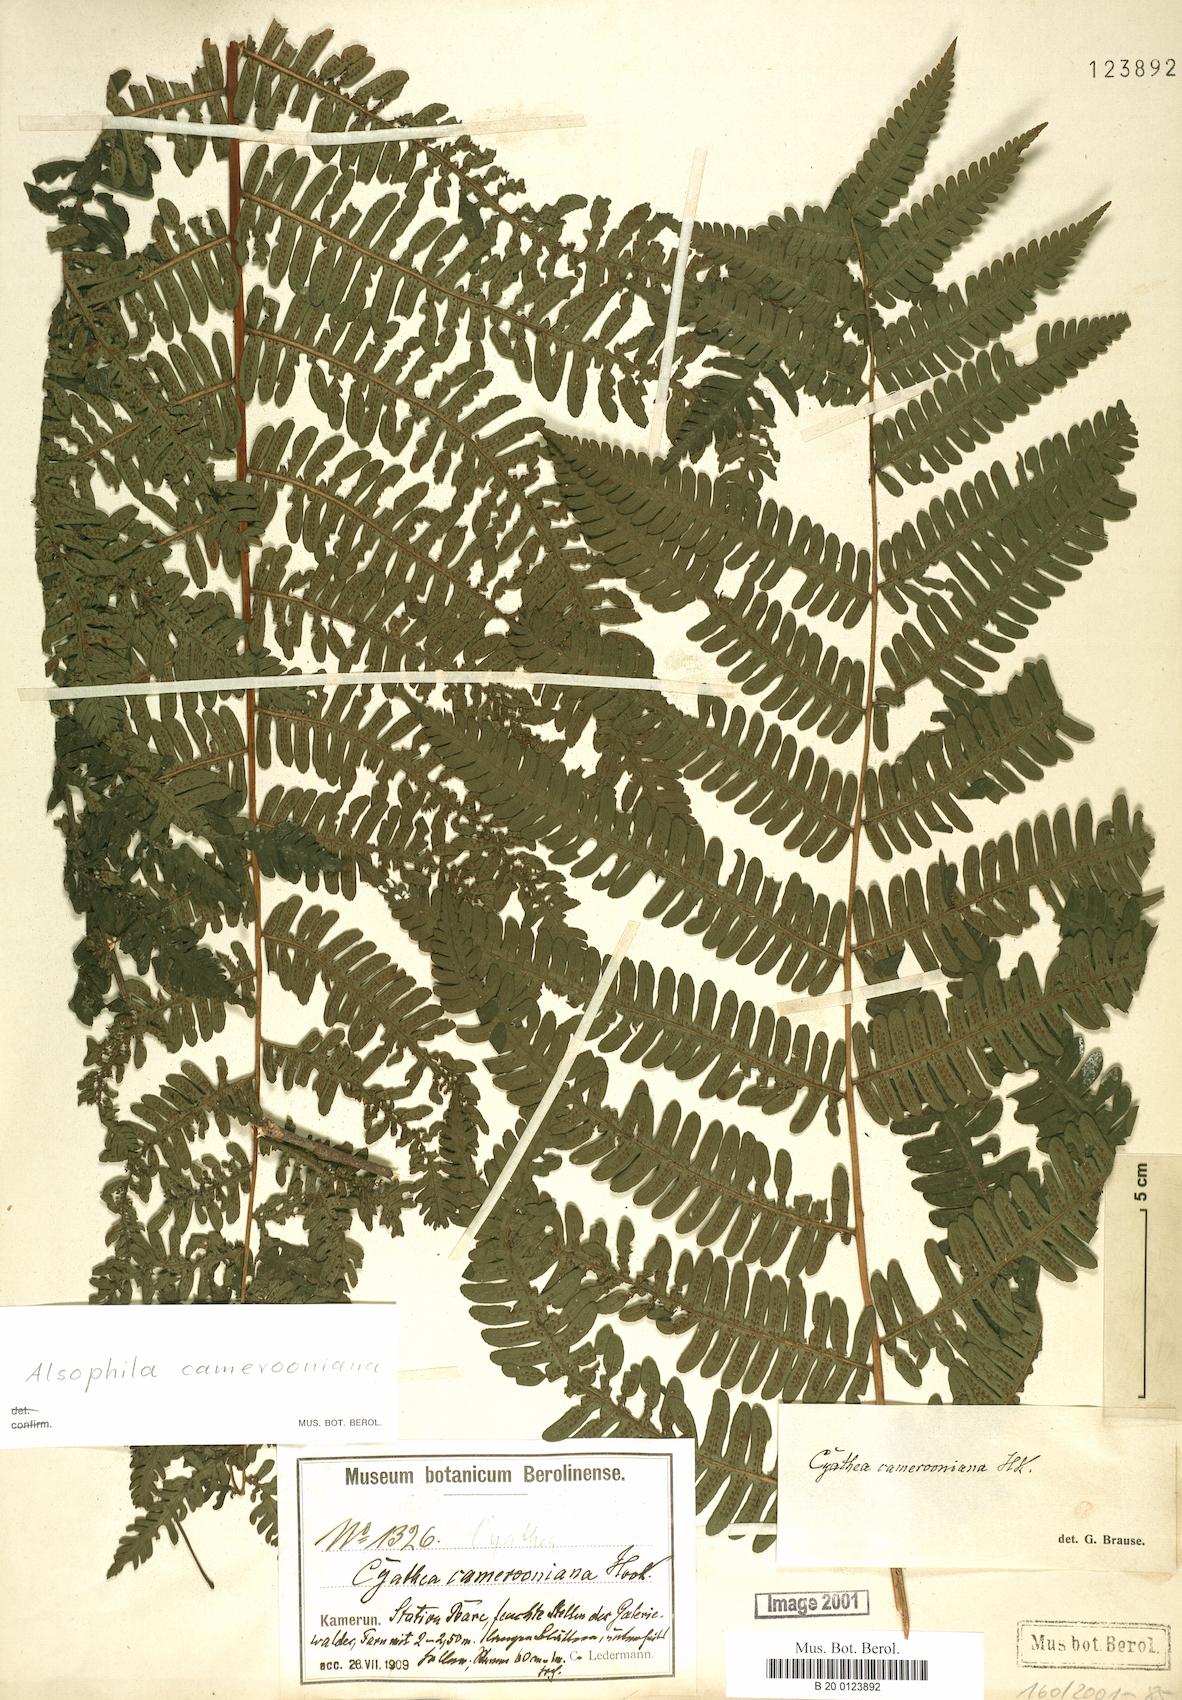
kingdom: Plantae
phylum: Tracheophyta
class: Polypodiopsida
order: Cyatheales
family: Cyatheaceae
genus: Alsophila
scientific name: Alsophila camerooniana
